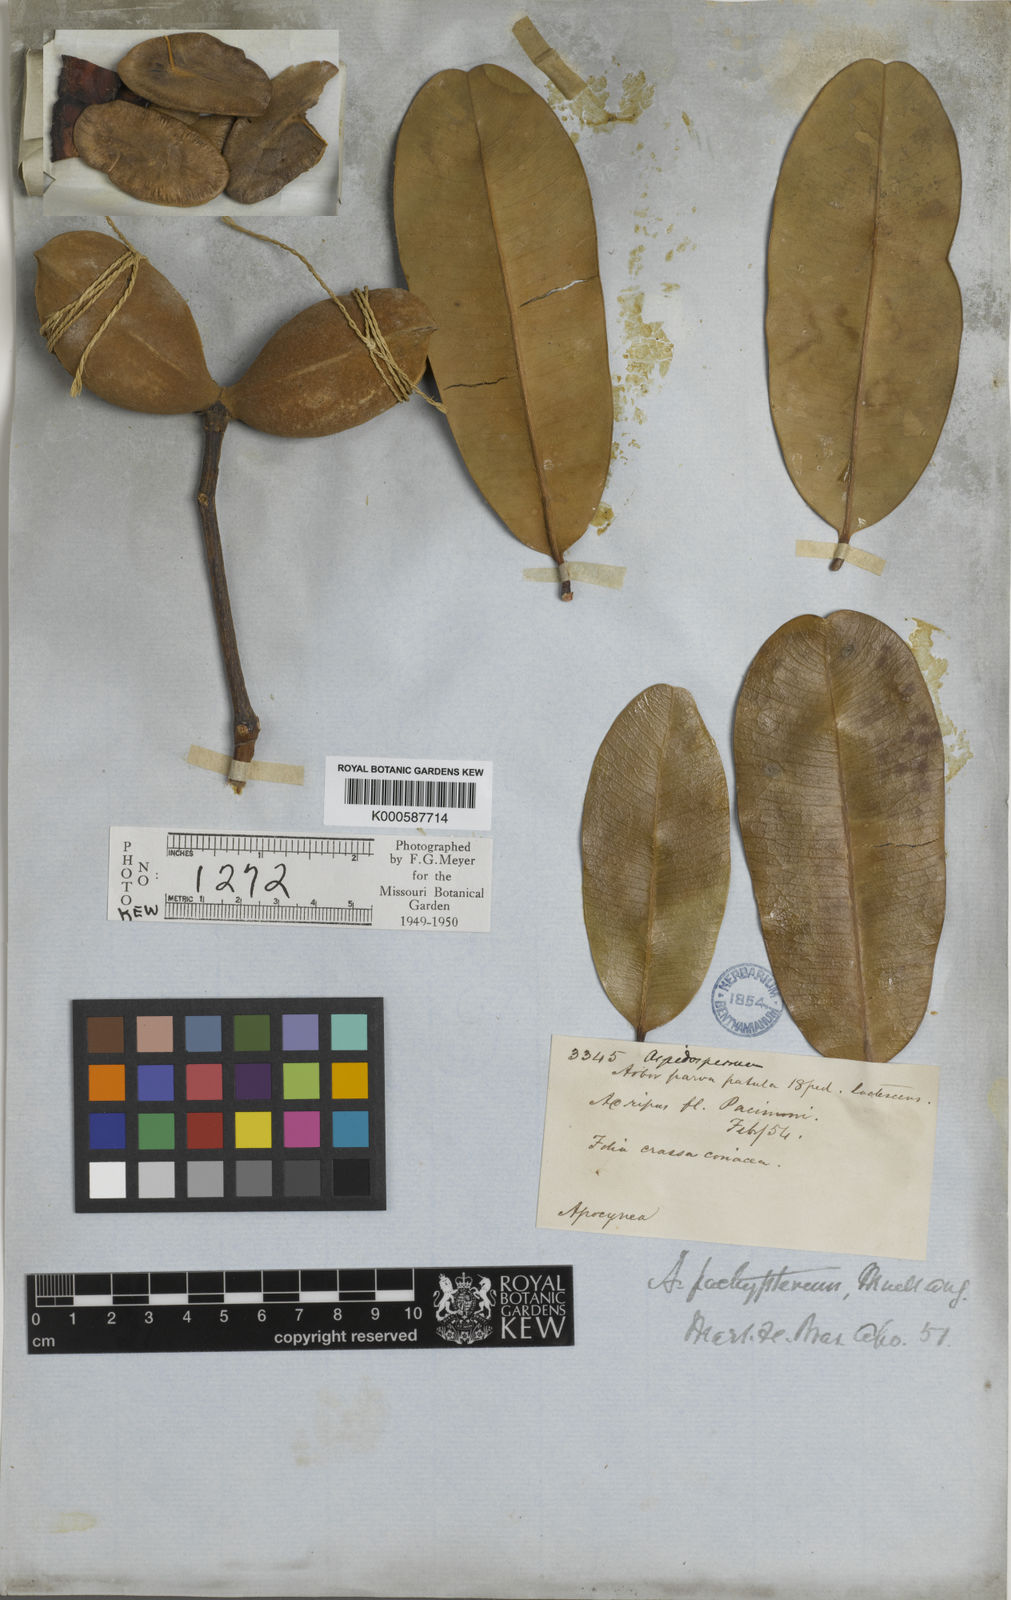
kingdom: Plantae
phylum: Tracheophyta
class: Magnoliopsida
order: Gentianales
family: Apocynaceae
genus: Aspidosperma
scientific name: Aspidosperma album
